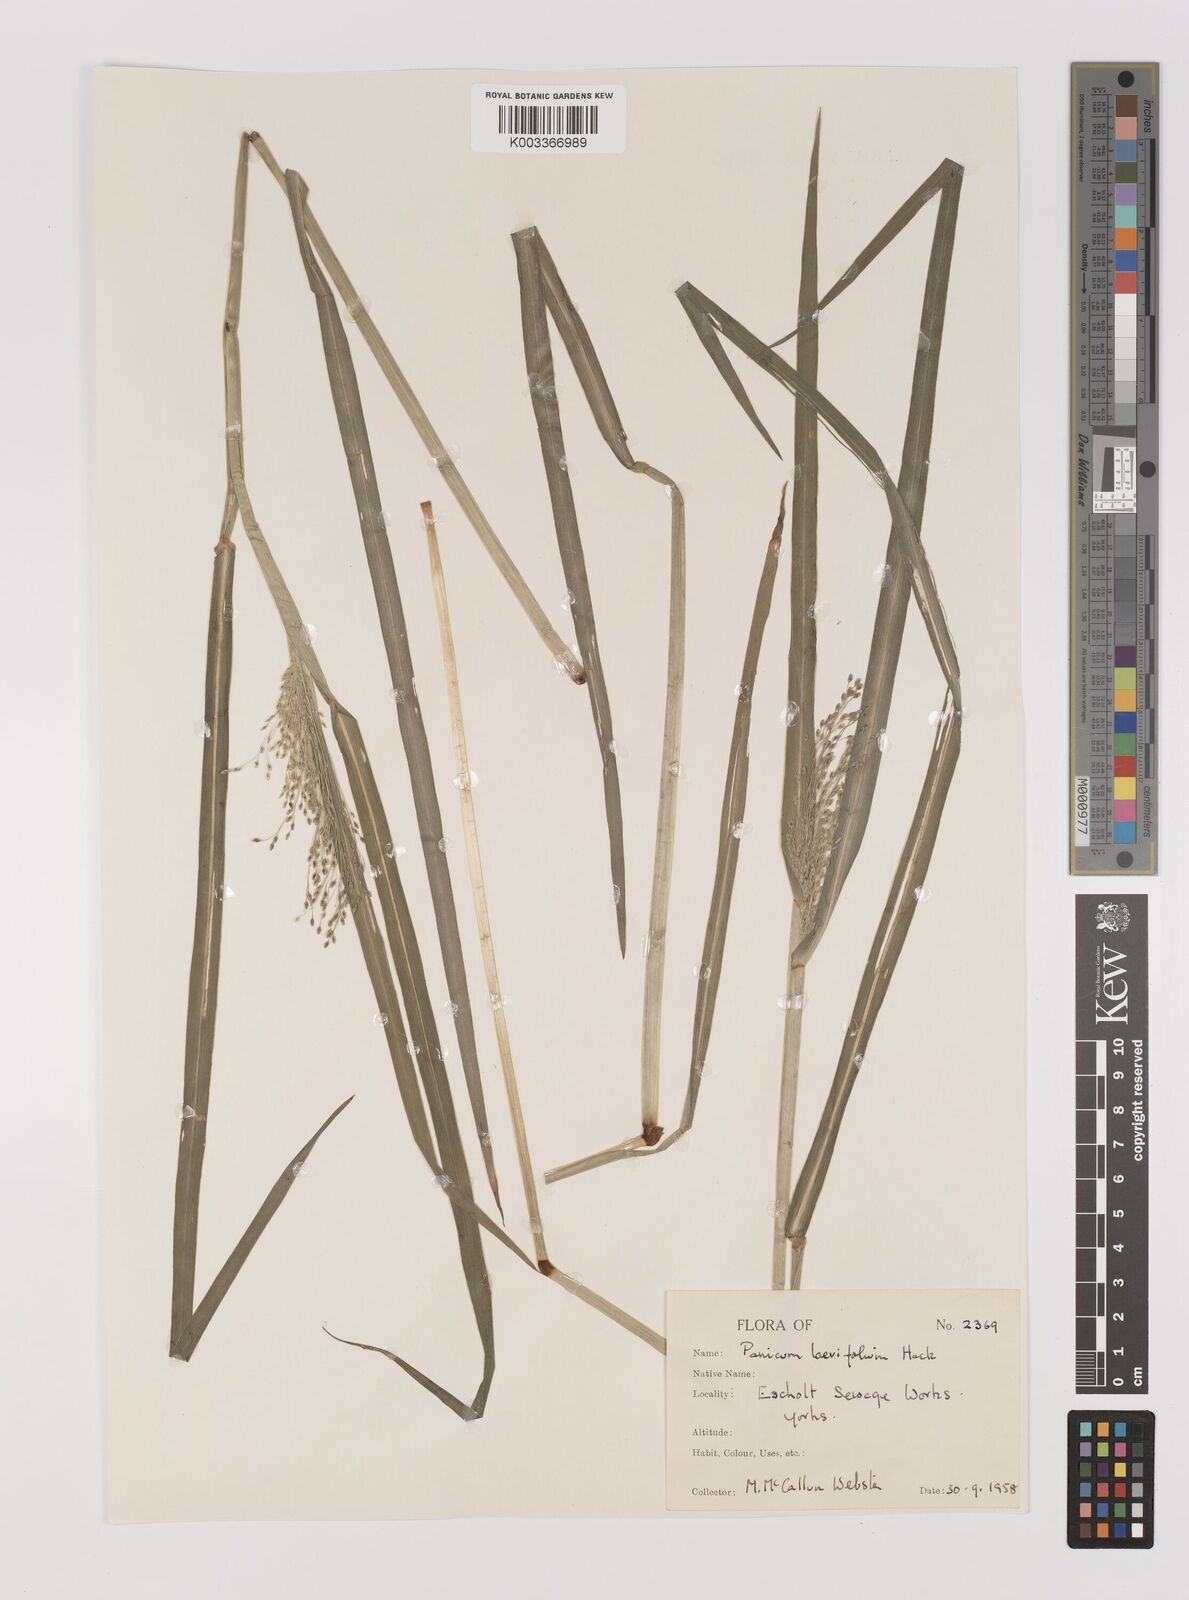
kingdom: Plantae
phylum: Tracheophyta
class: Liliopsida
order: Poales
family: Poaceae
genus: Panicum
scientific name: Panicum schinzii
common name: Sweet grass
